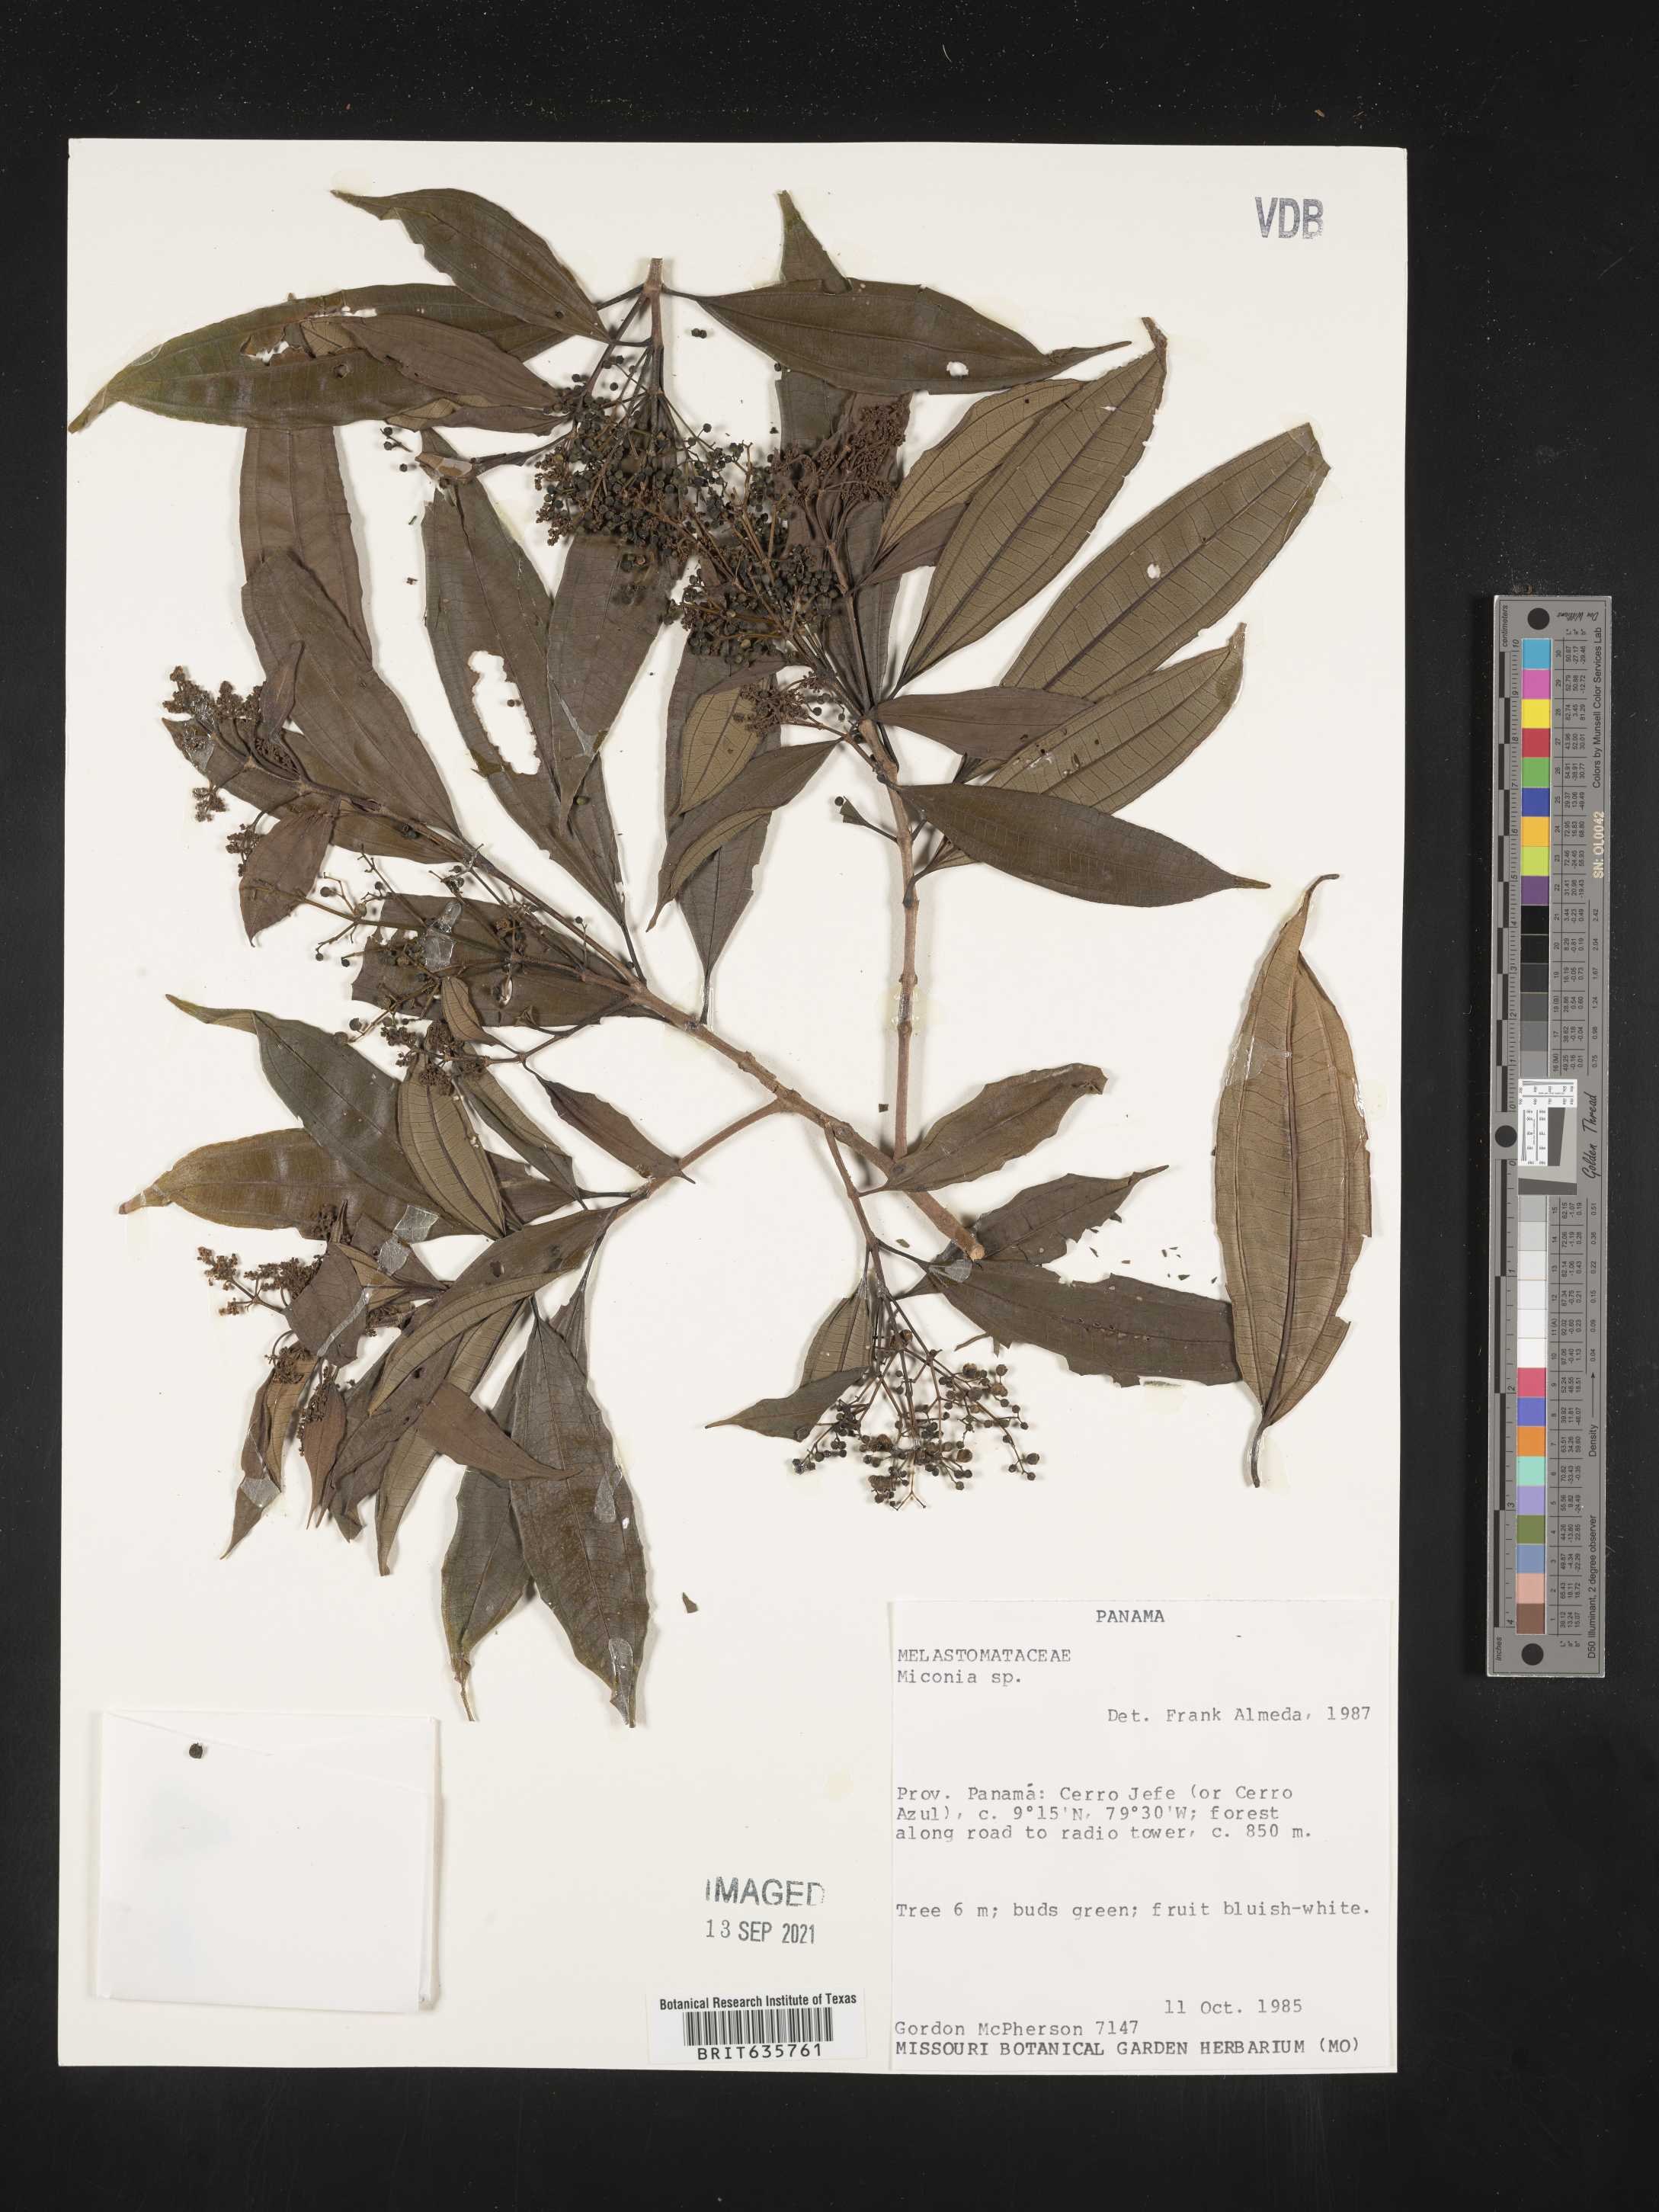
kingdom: Plantae
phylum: Tracheophyta
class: Magnoliopsida
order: Myrtales
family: Melastomataceae
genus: Miconia
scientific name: Miconia
